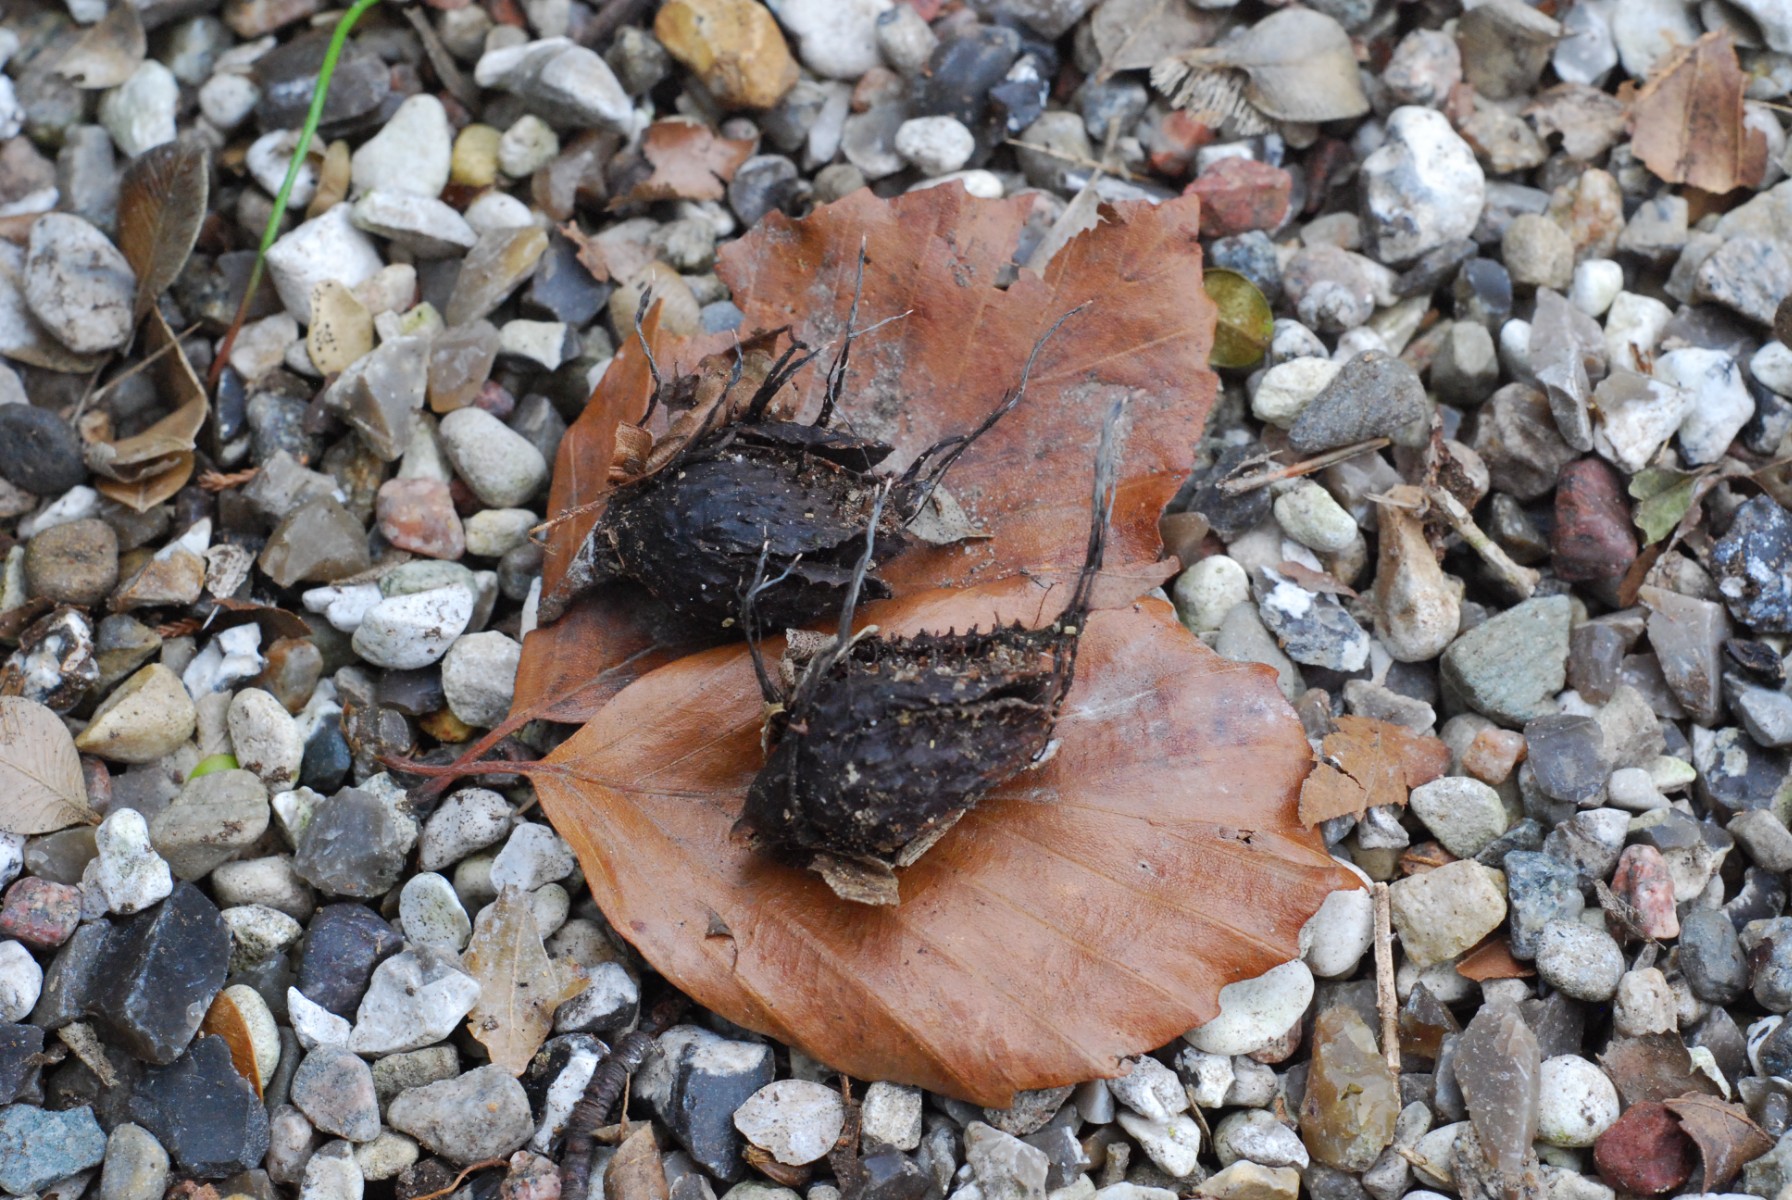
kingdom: Fungi
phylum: Ascomycota
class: Sordariomycetes
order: Xylariales
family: Xylariaceae
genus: Xylaria
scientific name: Xylaria carpophila
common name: bogskål-stødsvamp
